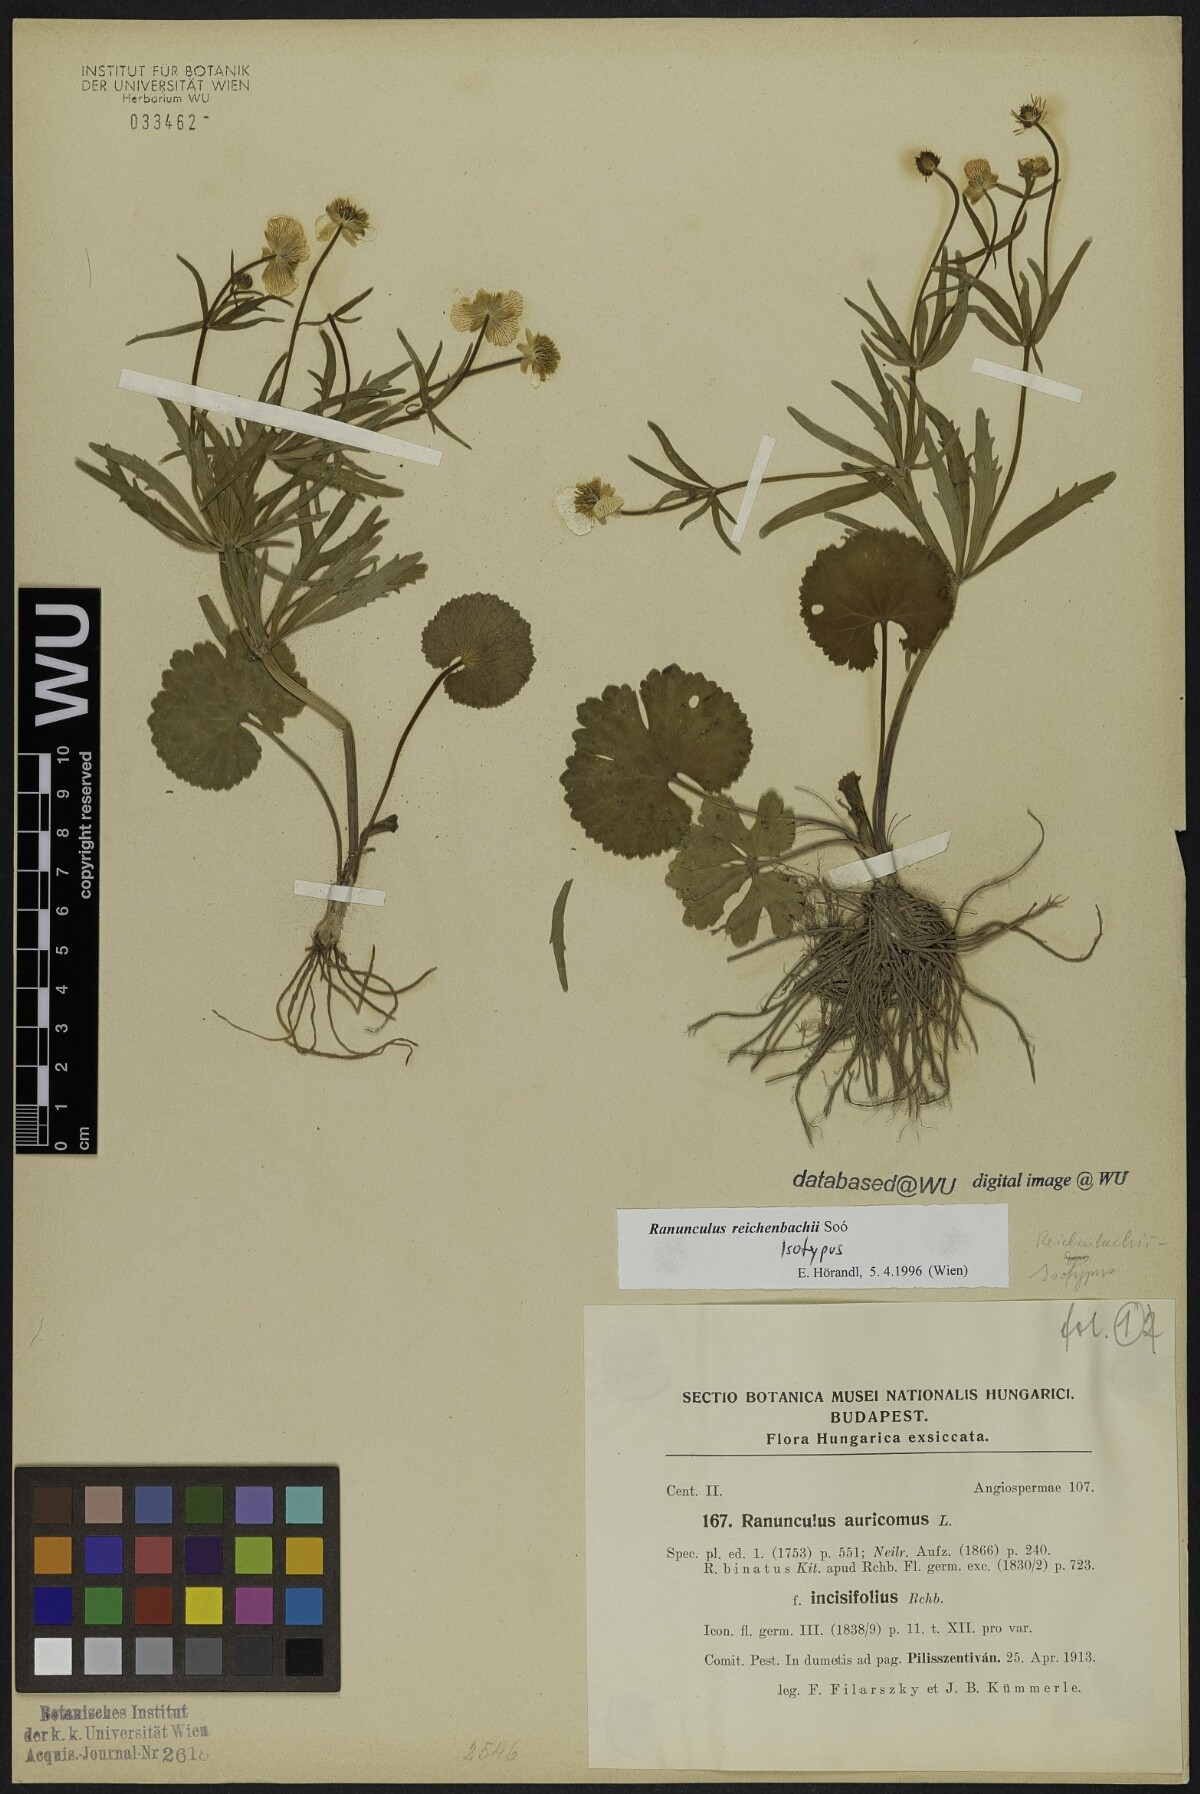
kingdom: Plantae
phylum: Tracheophyta
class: Magnoliopsida
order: Ranunculales
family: Ranunculaceae
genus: Ranunculus
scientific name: Ranunculus reichenbachii
